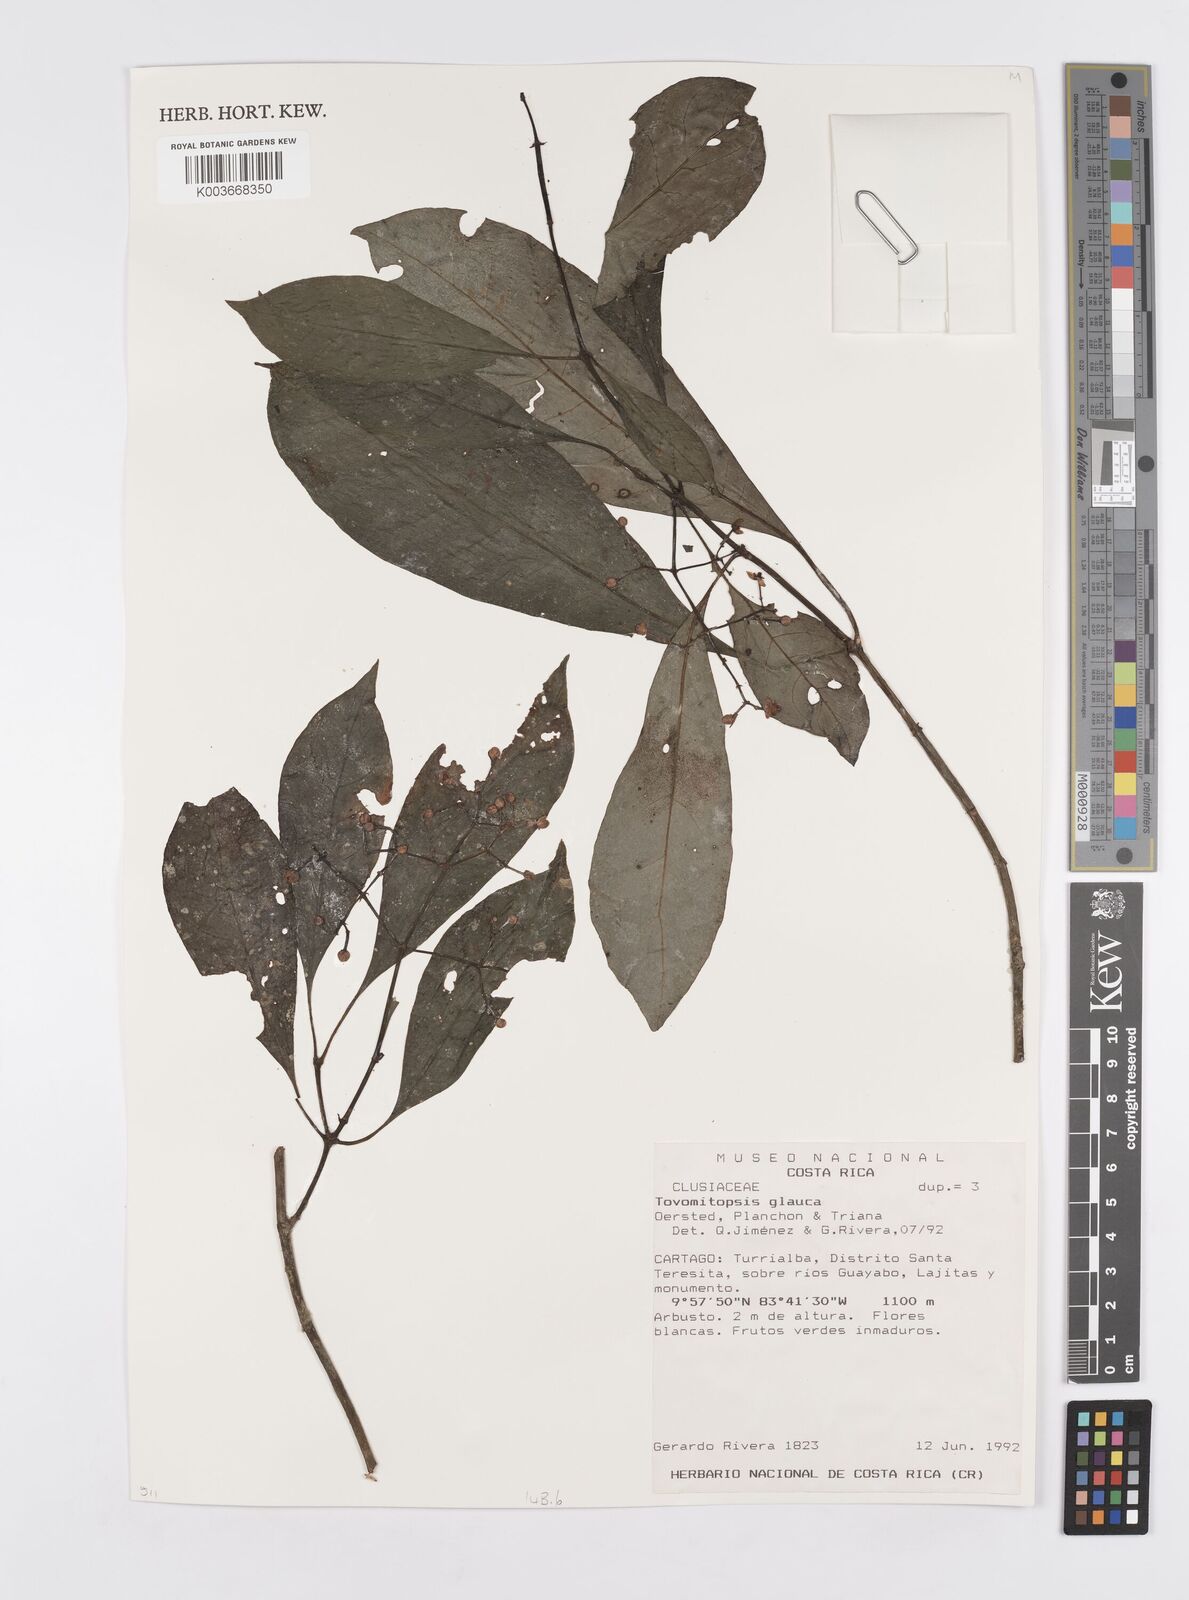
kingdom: Plantae
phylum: Tracheophyta
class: Magnoliopsida
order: Malpighiales
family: Clusiaceae
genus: Chrysochlamys
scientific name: Chrysochlamys glauca
